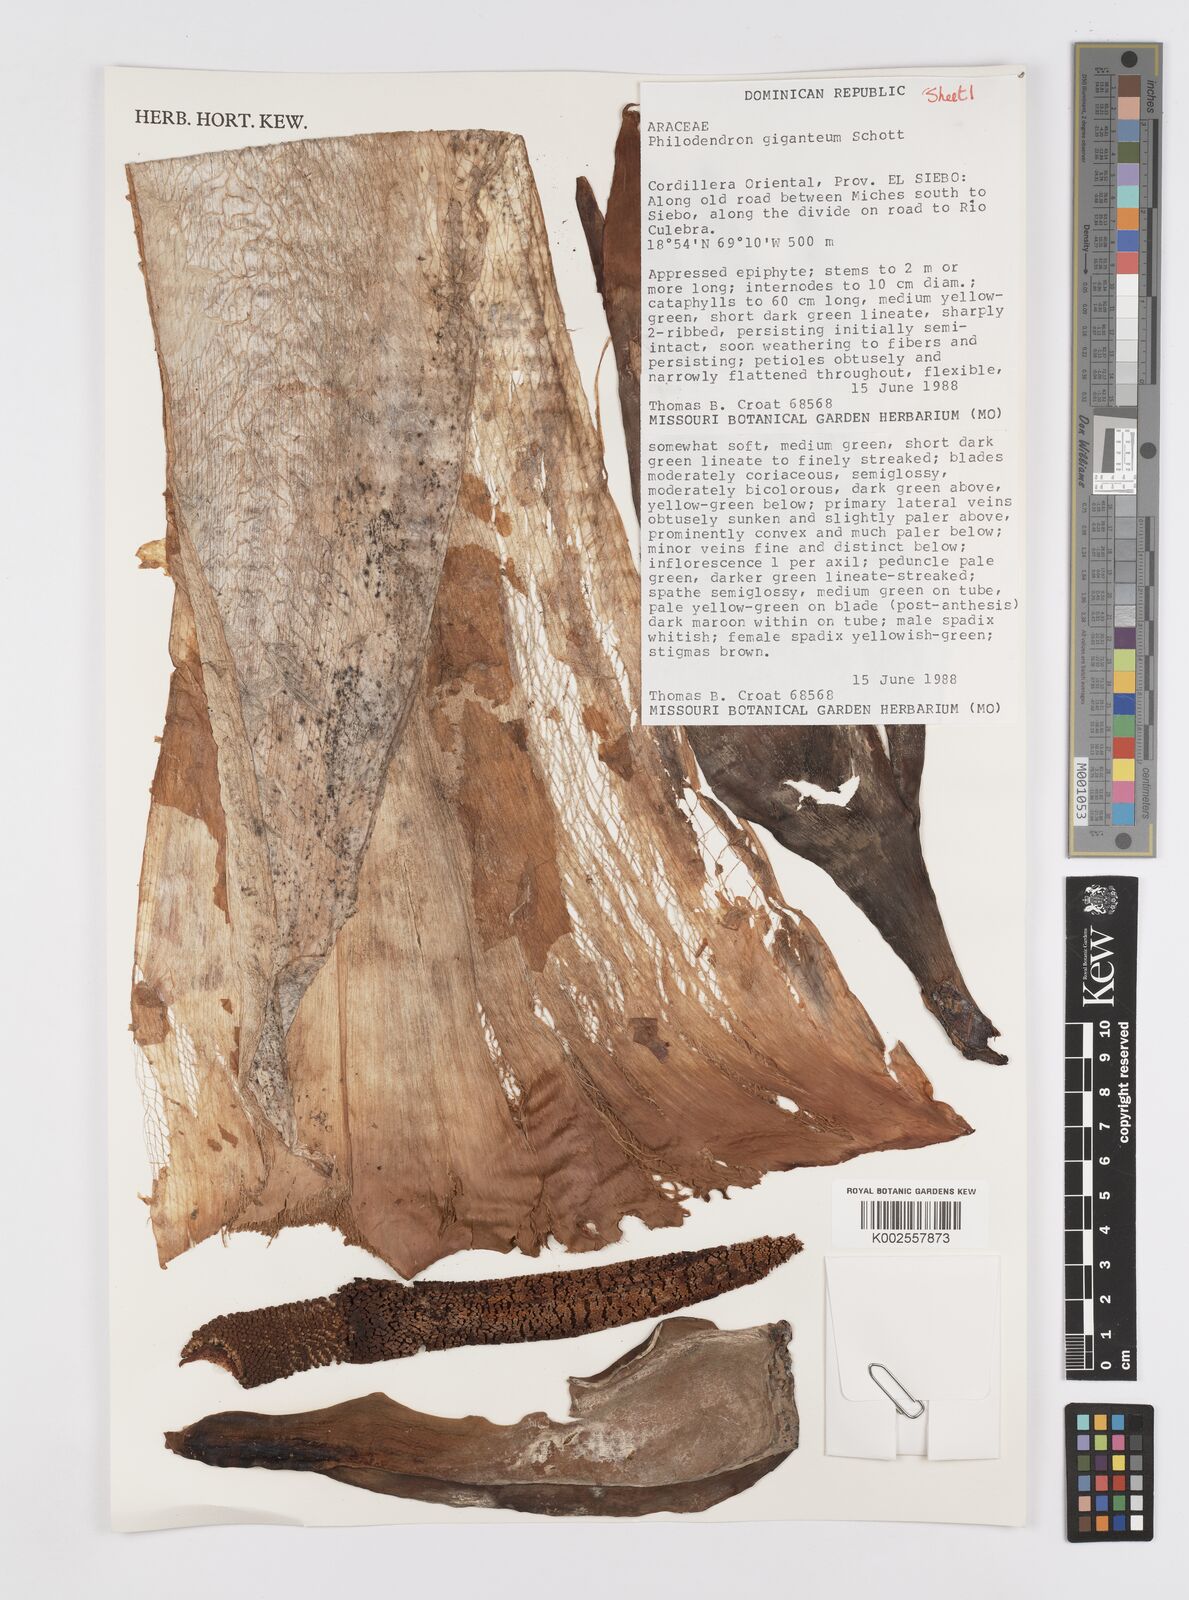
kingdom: Plantae
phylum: Tracheophyta
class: Liliopsida
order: Alismatales
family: Araceae
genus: Philodendron
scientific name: Philodendron
